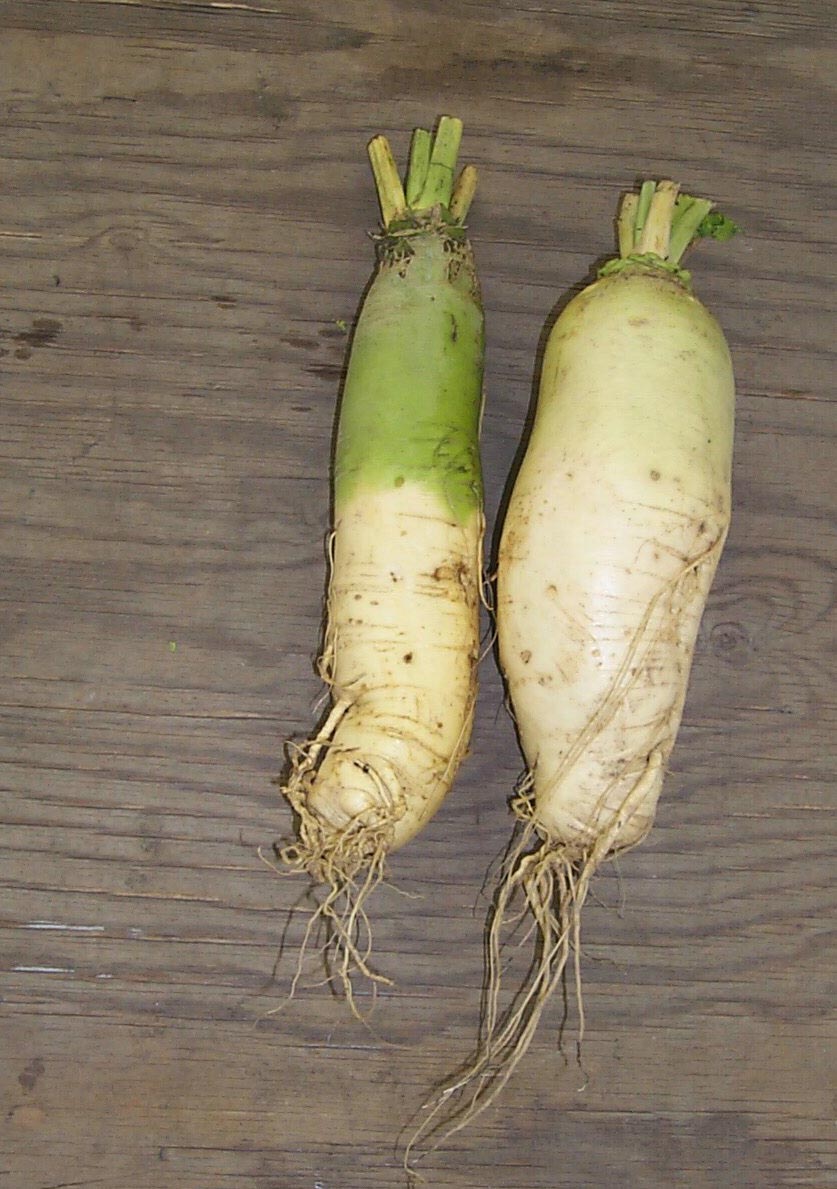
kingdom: Plantae
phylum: Tracheophyta
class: Magnoliopsida
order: Brassicales
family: Brassicaceae
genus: Brassica
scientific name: Brassica rapa
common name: Field mustard
